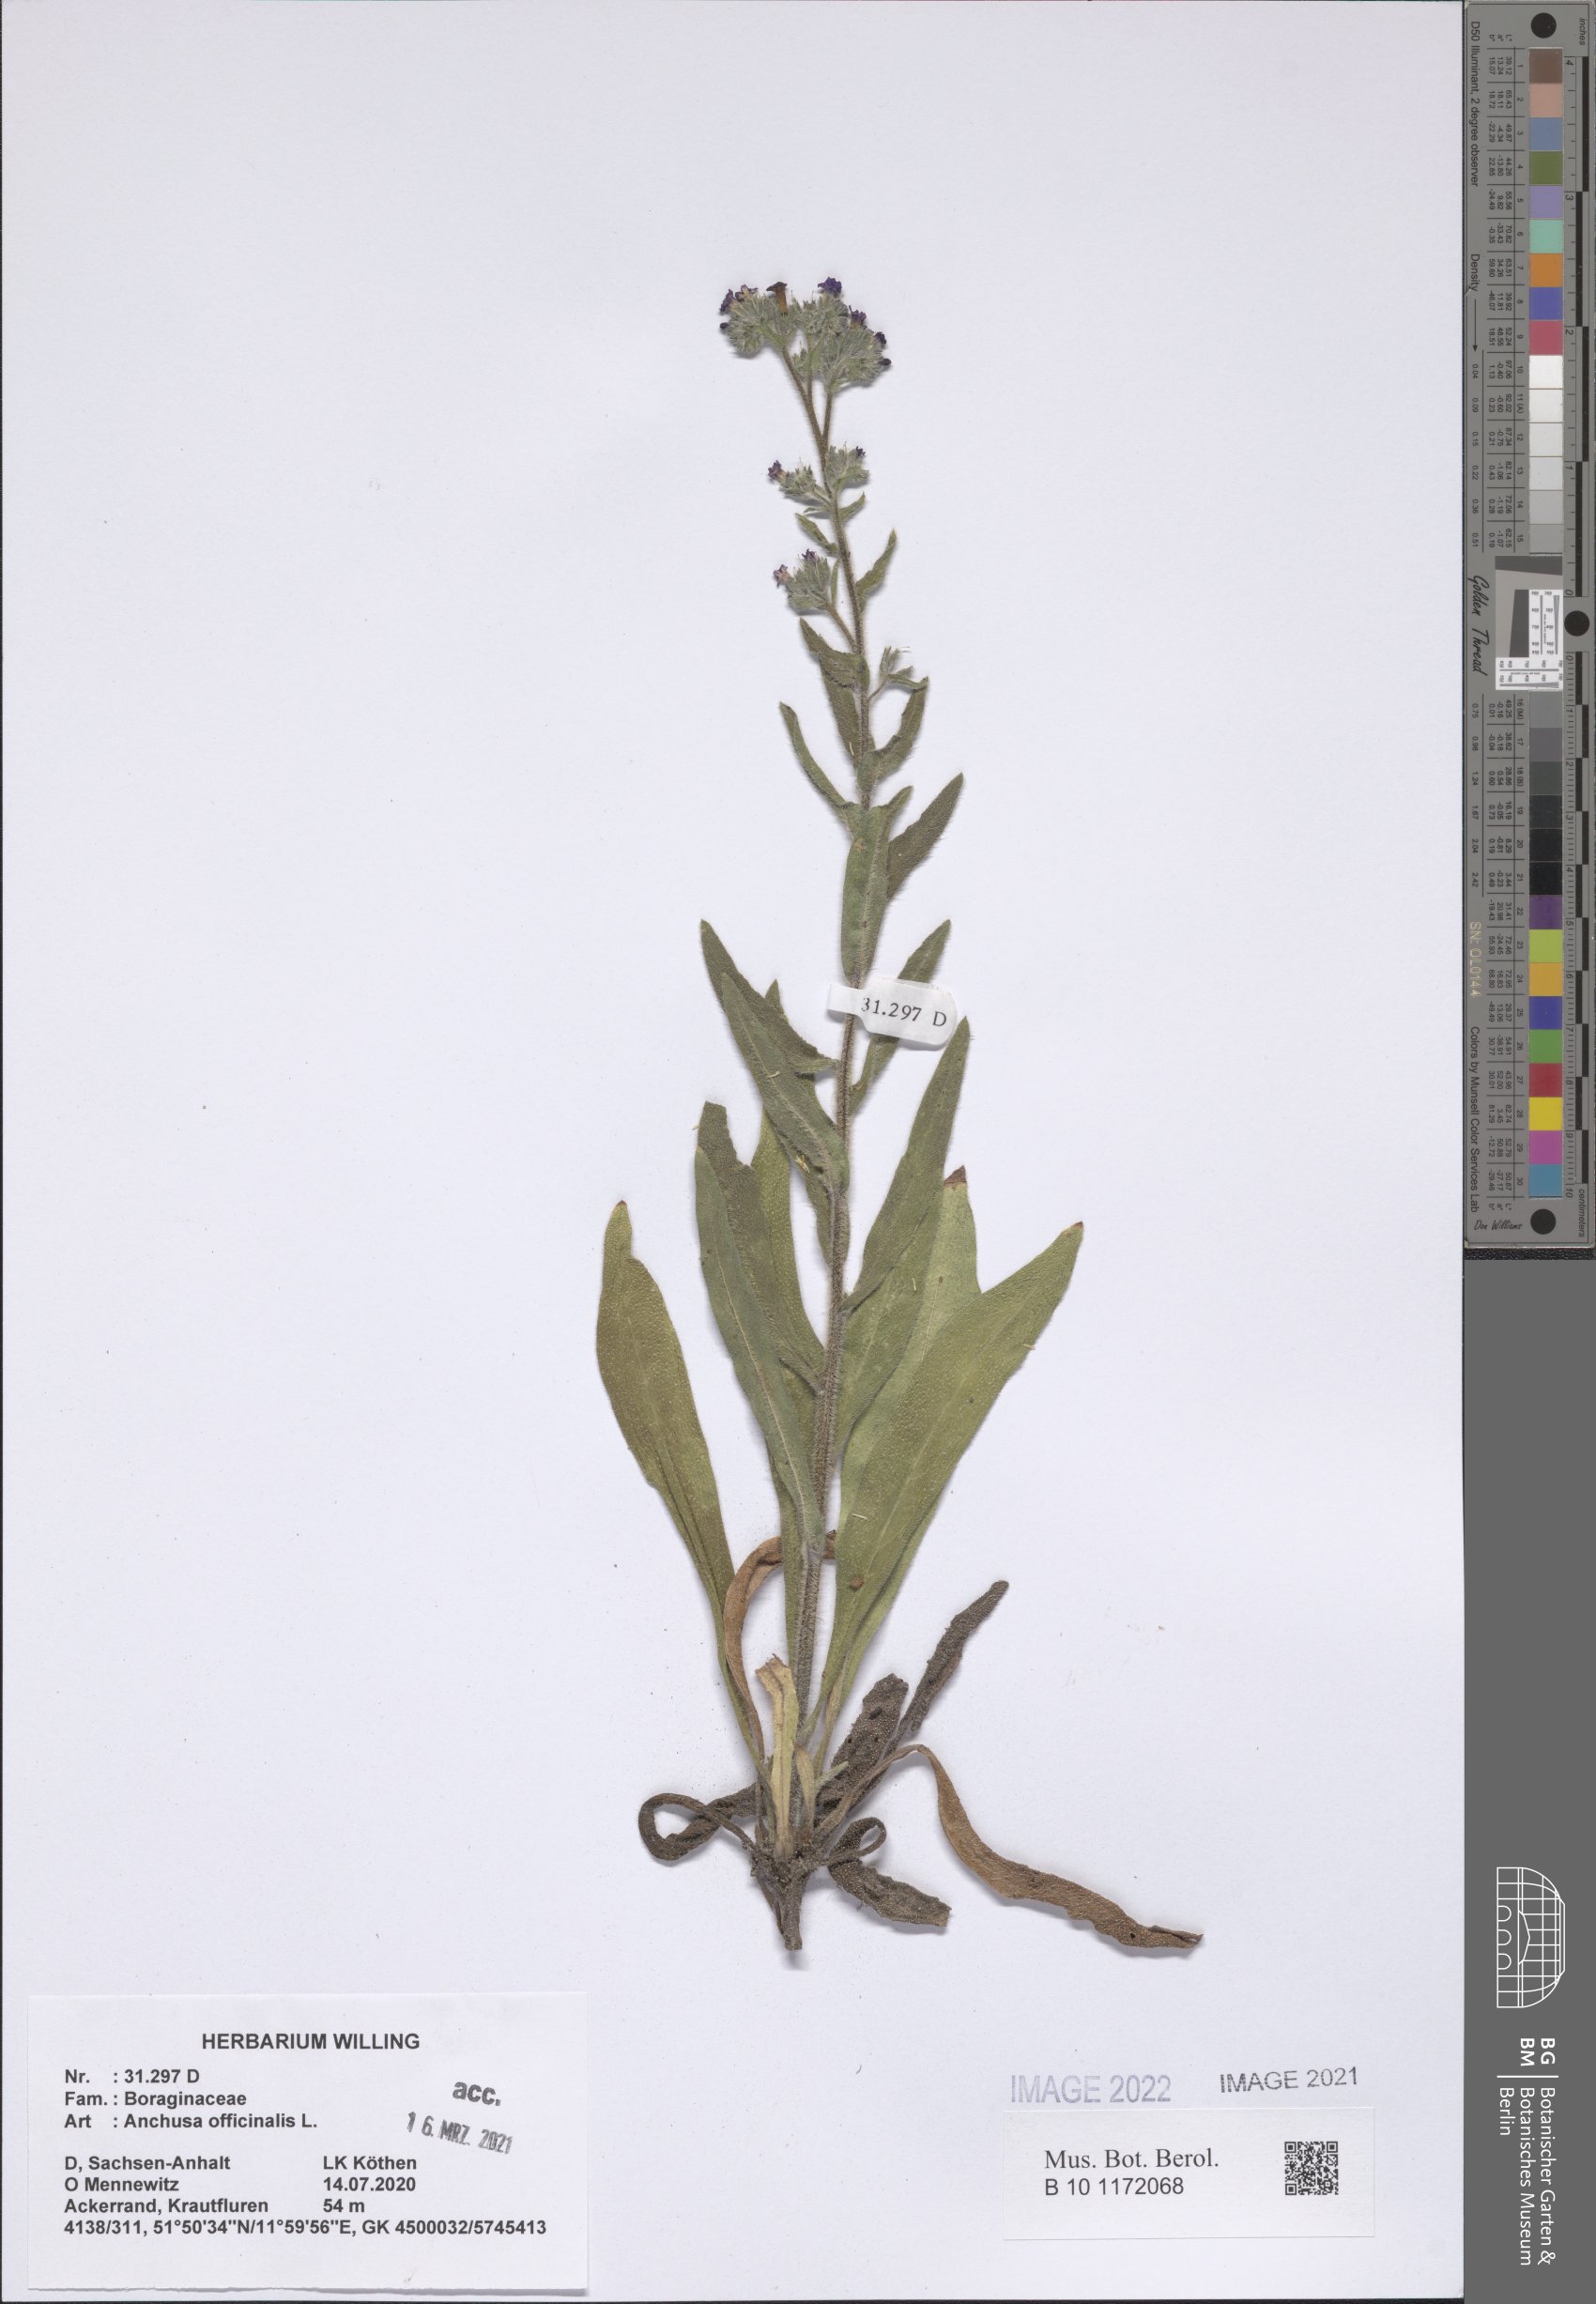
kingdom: Plantae
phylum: Tracheophyta
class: Magnoliopsida
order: Boraginales
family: Boraginaceae
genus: Anchusa
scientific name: Anchusa officinalis
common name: Alkanet
